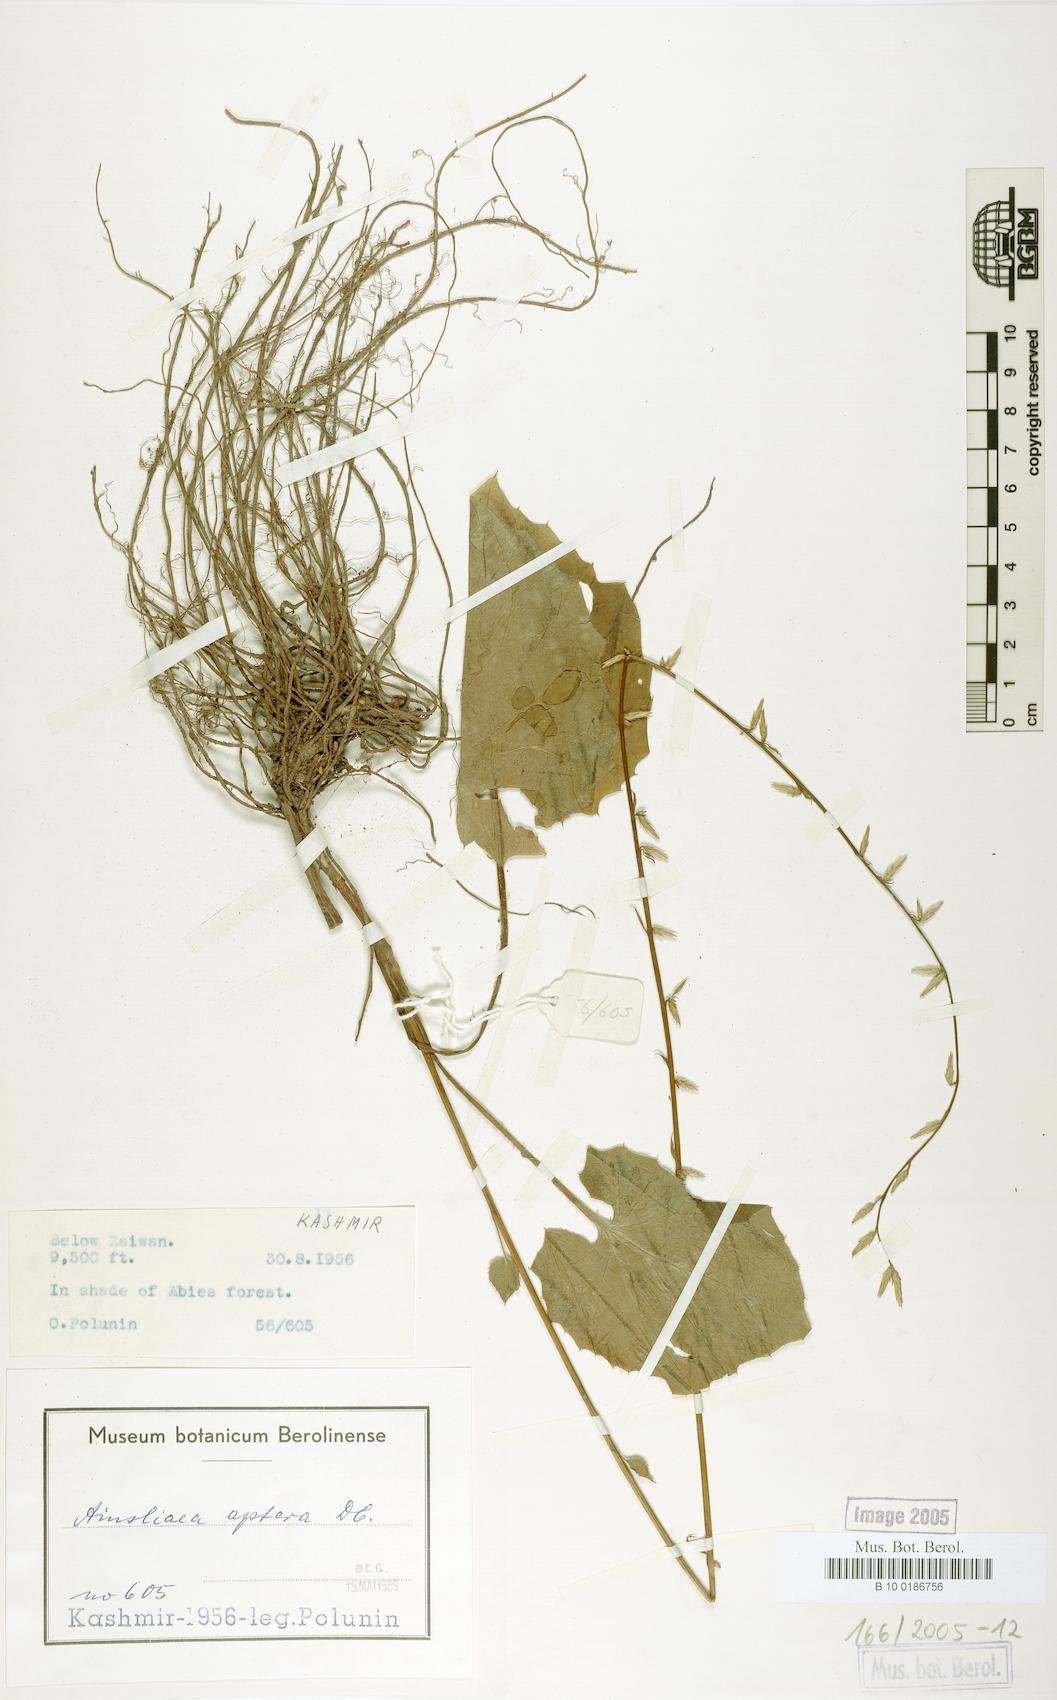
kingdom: Plantae
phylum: Tracheophyta
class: Magnoliopsida
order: Asterales
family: Asteraceae
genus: Ainsliaea
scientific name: Ainsliaea aptera
